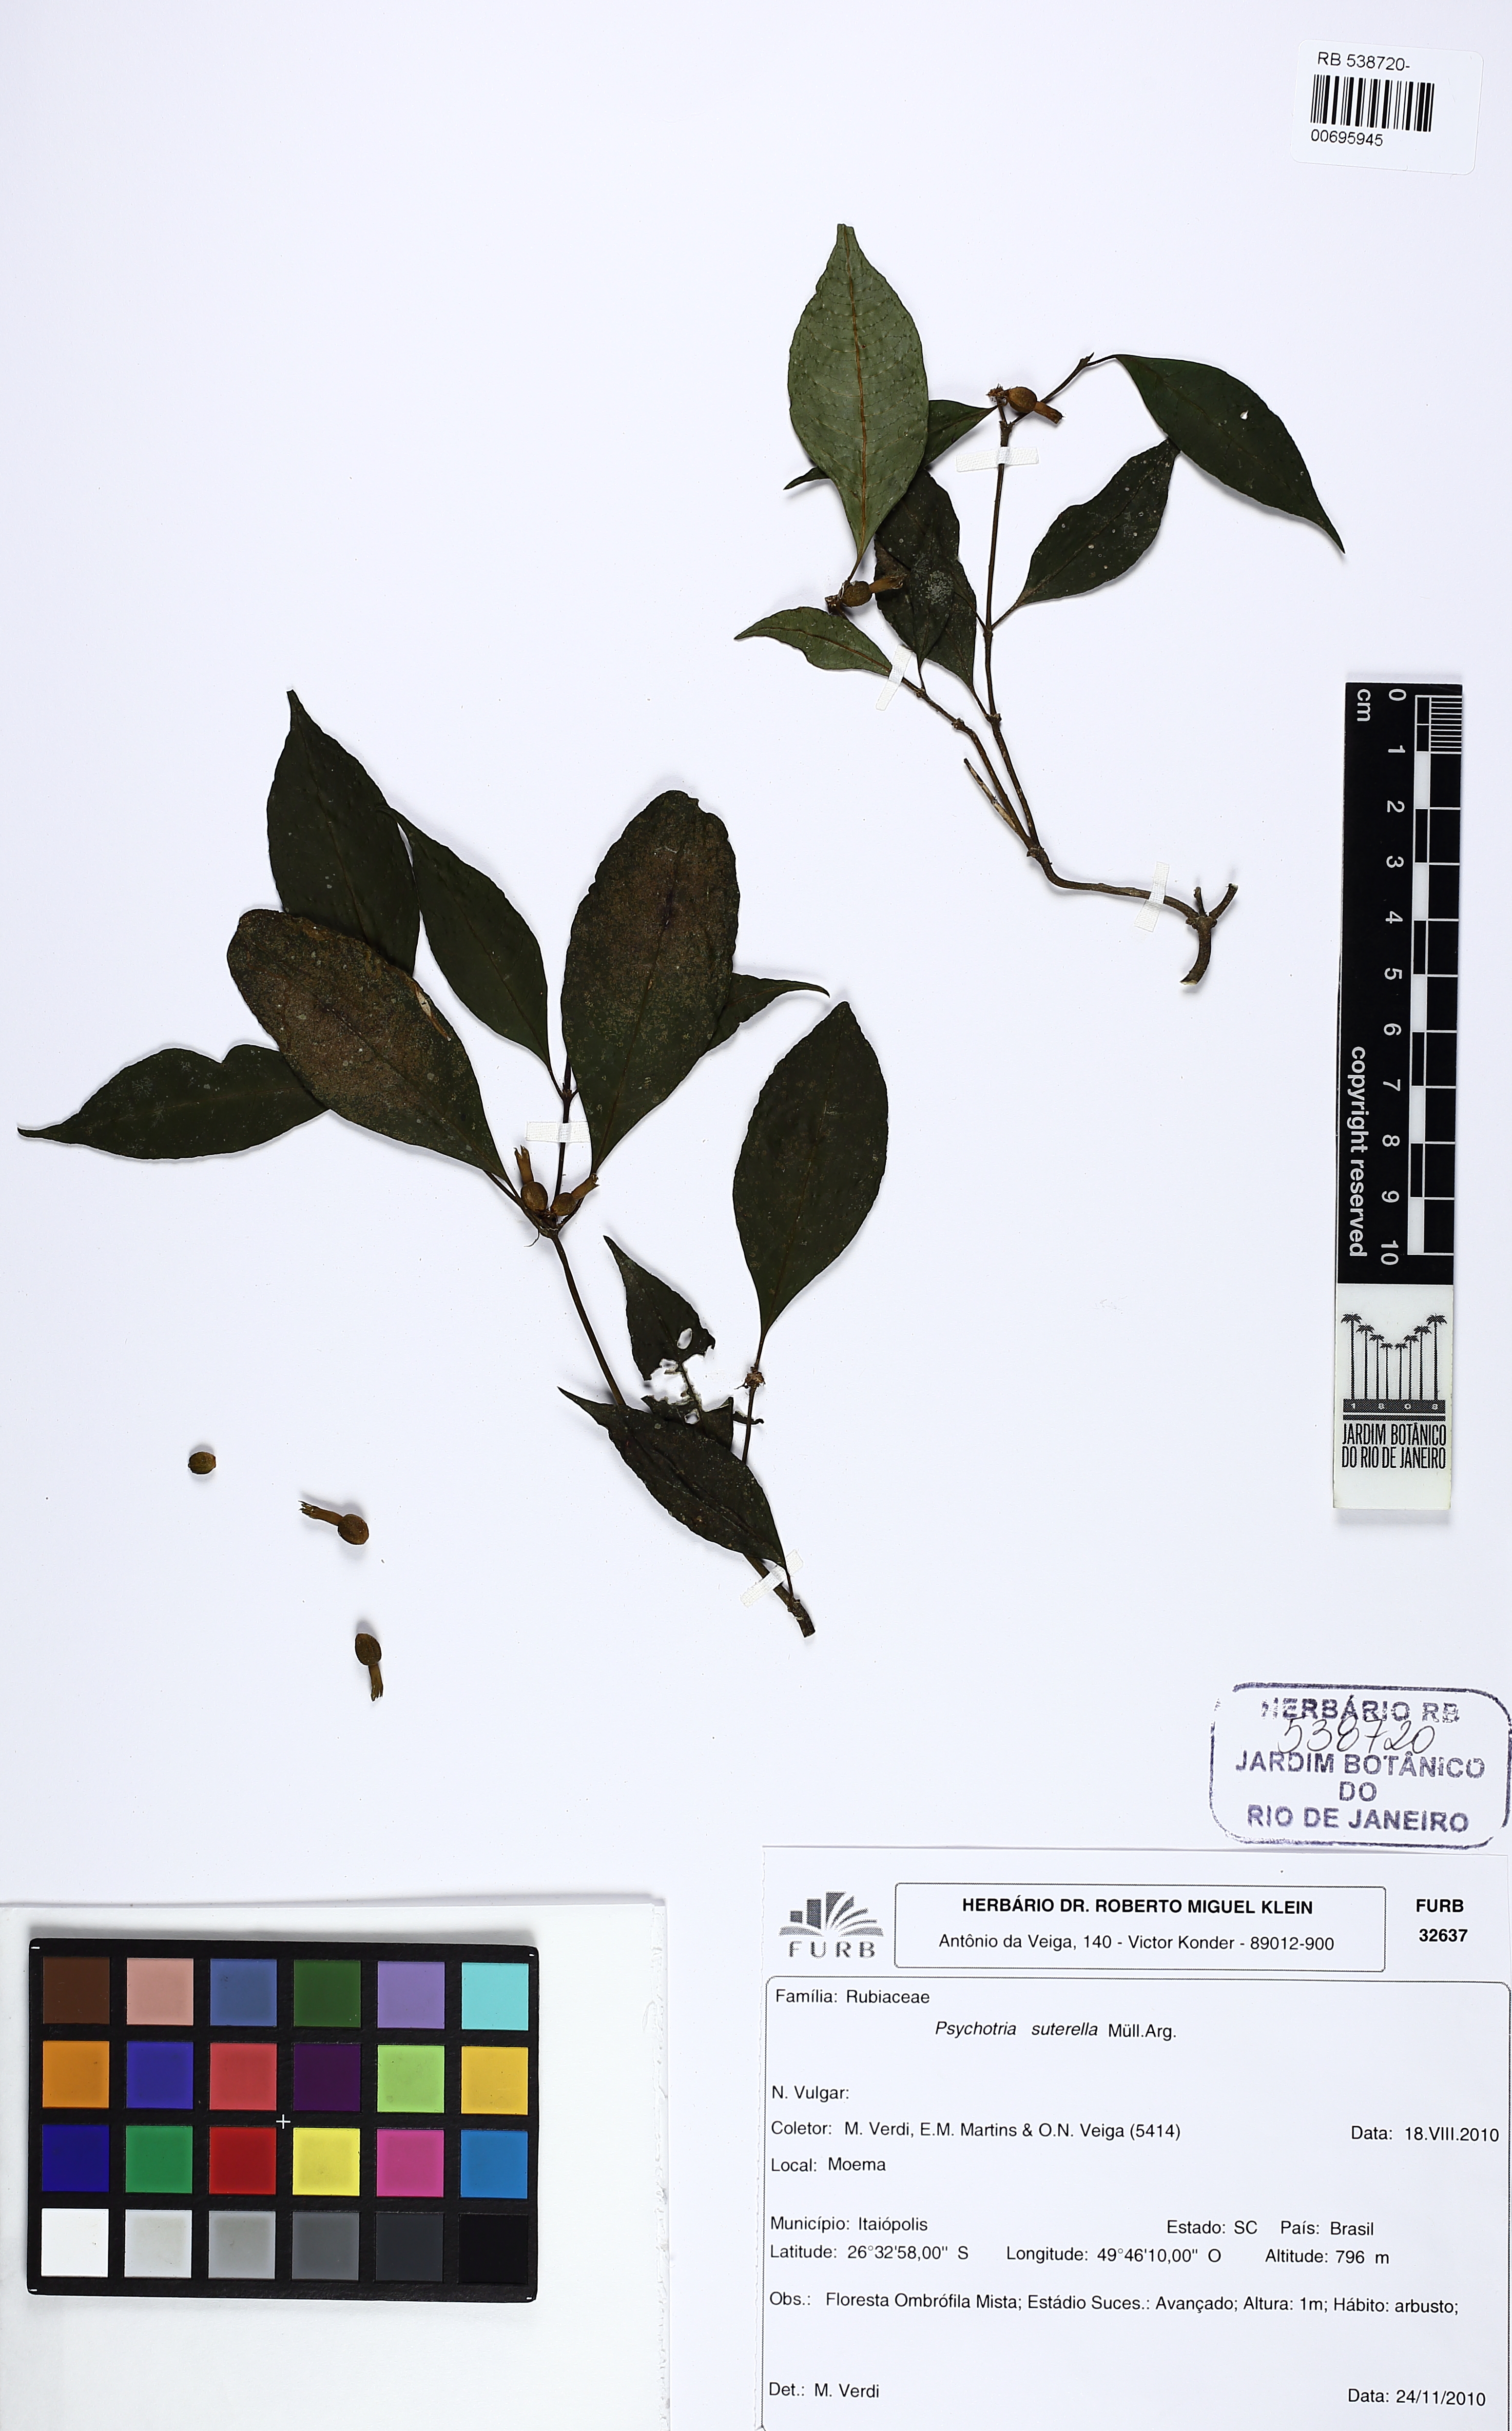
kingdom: Plantae
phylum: Tracheophyta
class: Magnoliopsida
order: Gentianales
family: Rubiaceae
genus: Psychotria
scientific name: Psychotria suterella
